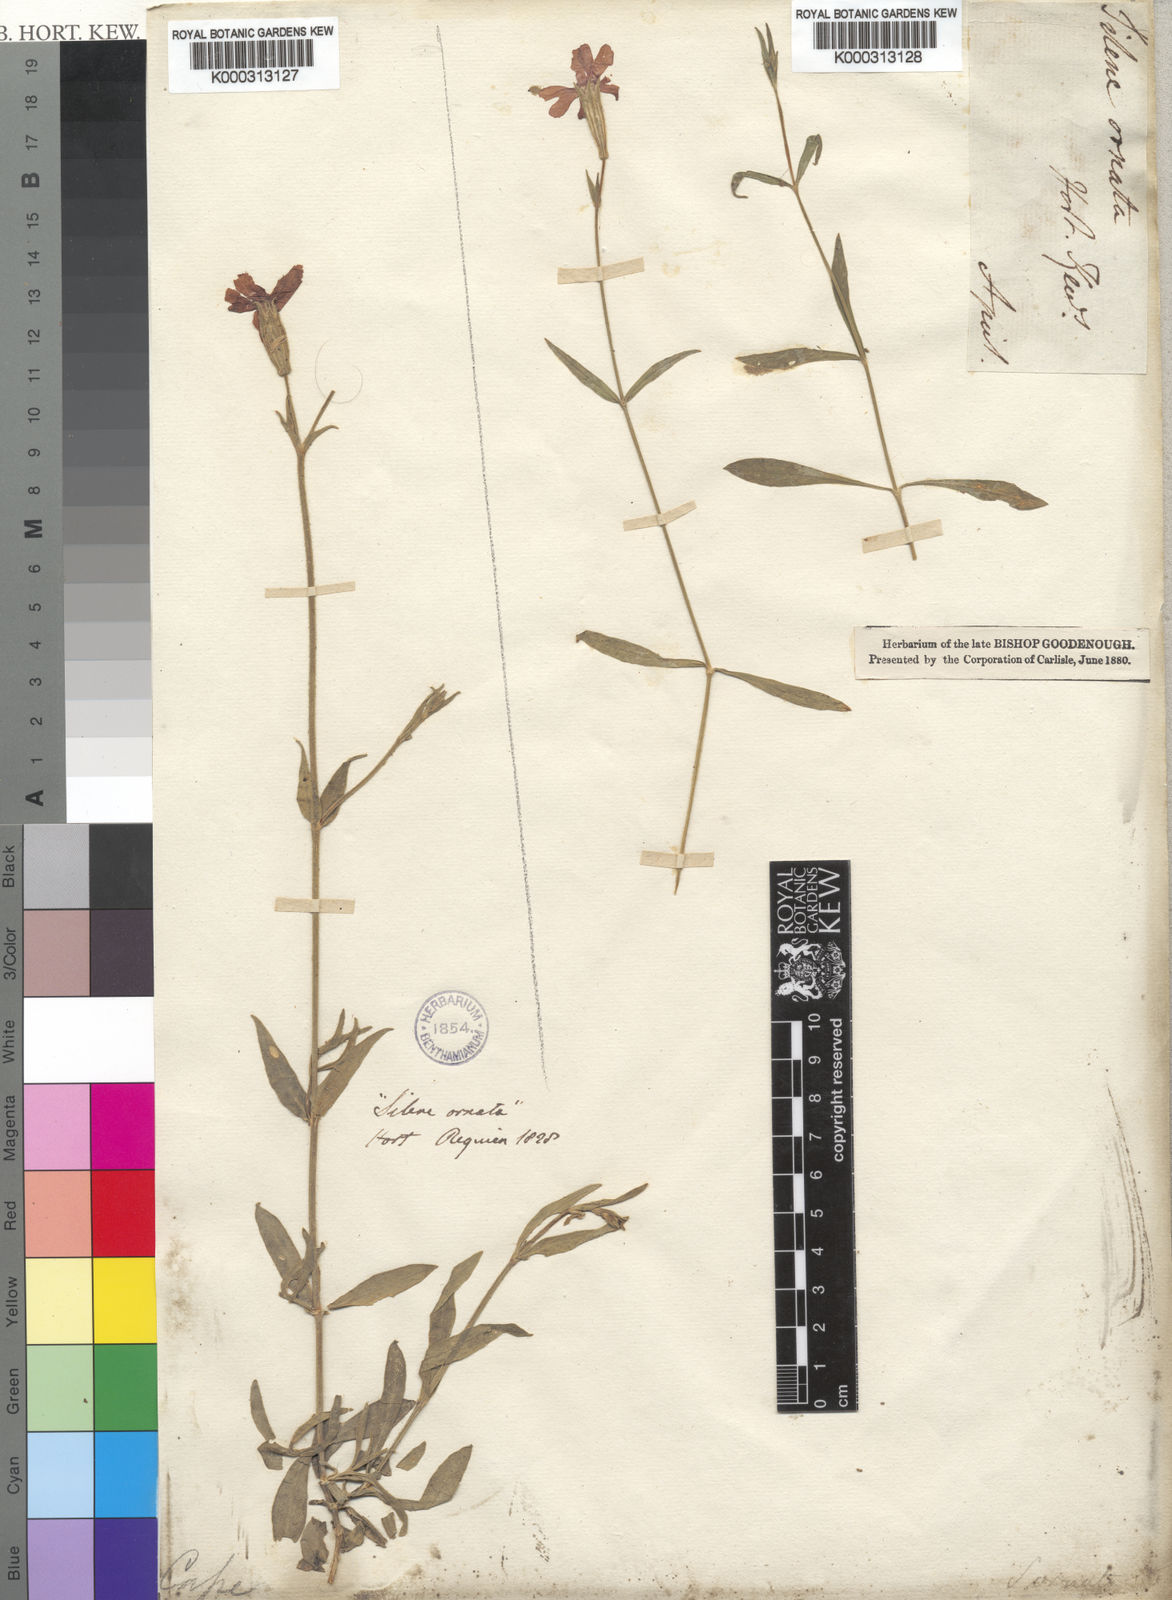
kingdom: Plantae
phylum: Tracheophyta
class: Magnoliopsida
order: Caryophyllales
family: Caryophyllaceae
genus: Silene
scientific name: Silene ornata
